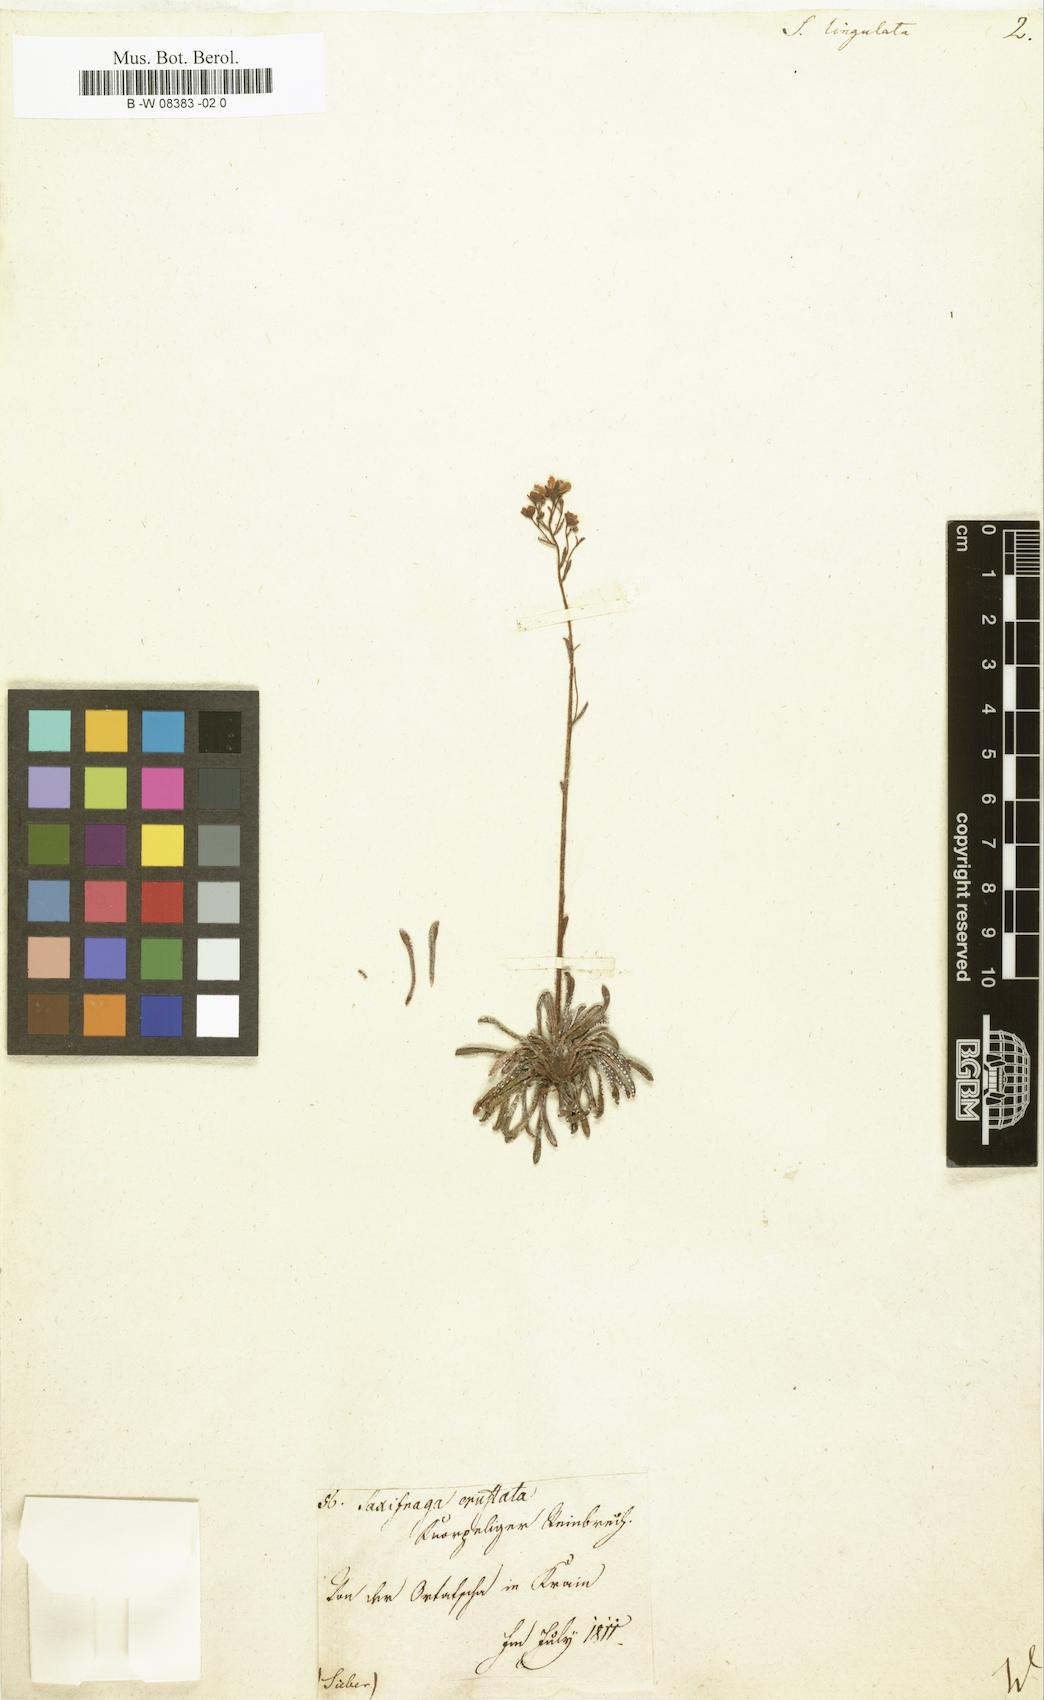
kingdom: Plantae
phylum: Tracheophyta
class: Magnoliopsida
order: Saxifragales
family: Saxifragaceae
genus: Saxifraga
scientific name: Saxifraga
